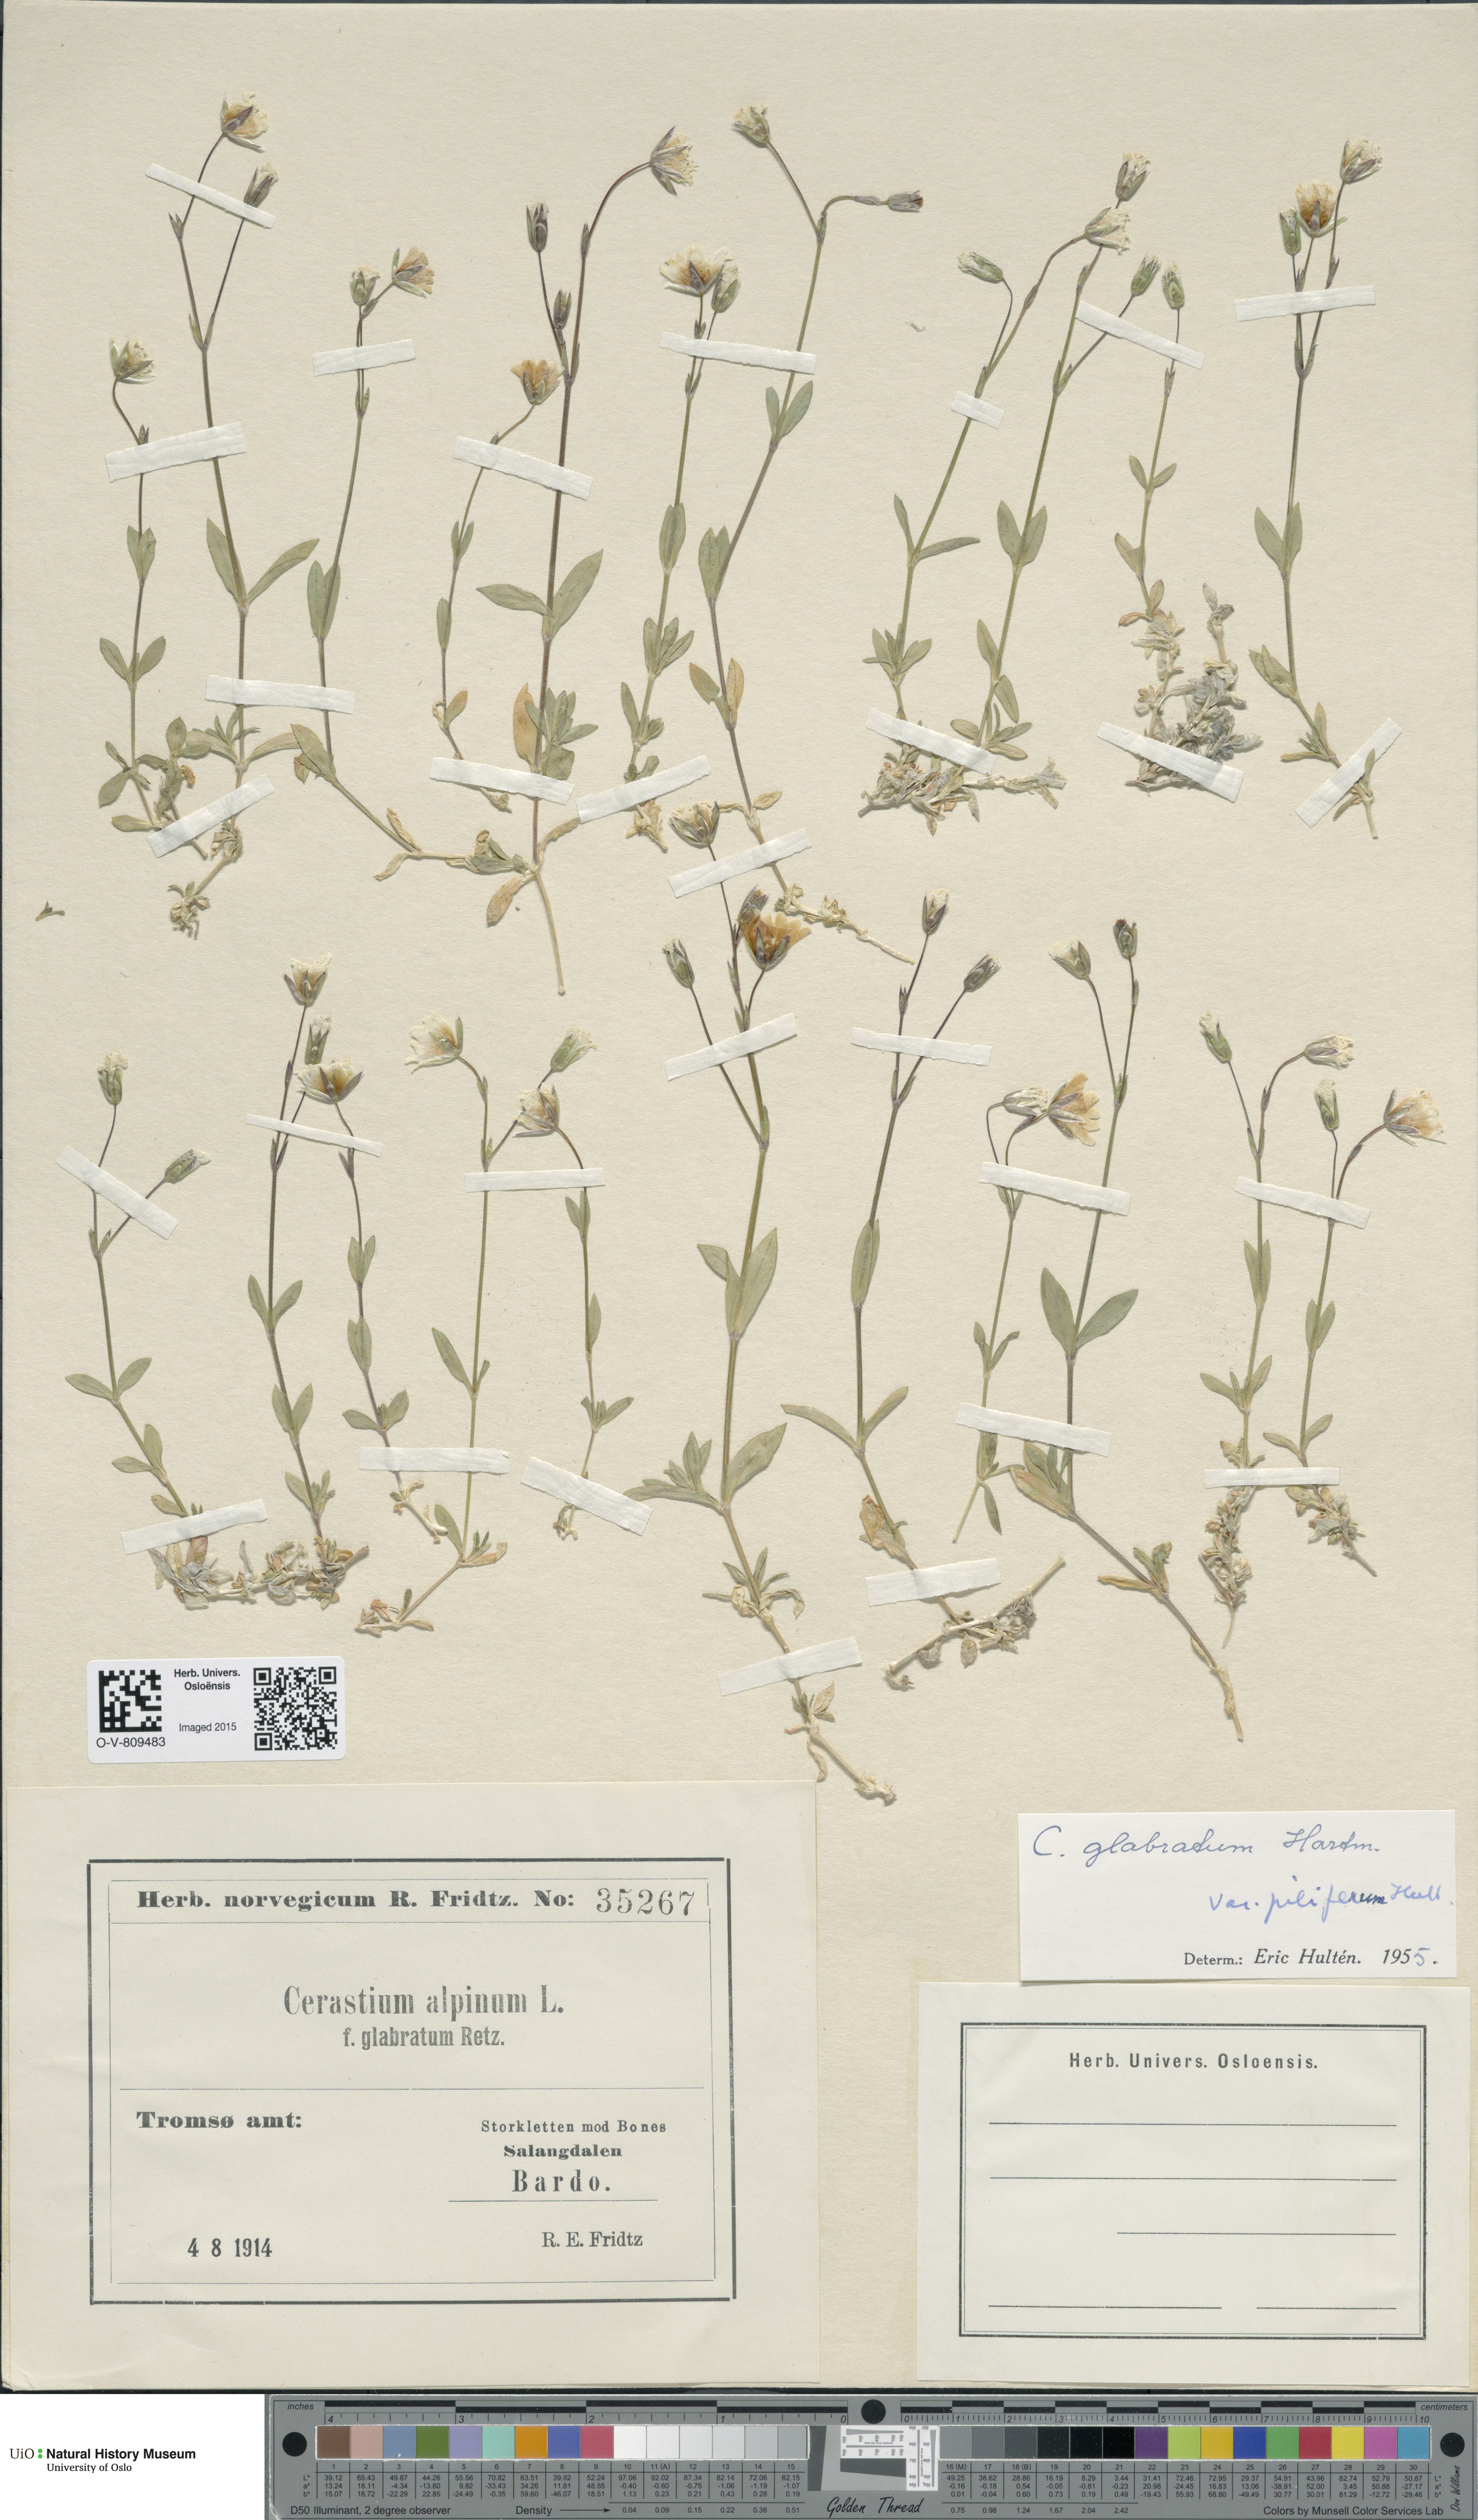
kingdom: Plantae
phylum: Tracheophyta
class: Magnoliopsida
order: Caryophyllales
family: Caryophyllaceae
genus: Cerastium
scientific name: Cerastium alpinum
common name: Alpine mouse-ear
